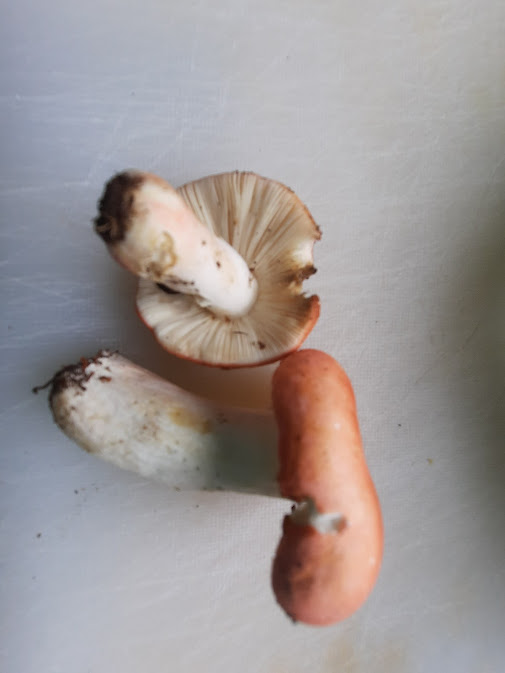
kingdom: Fungi
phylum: Basidiomycota
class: Agaricomycetes
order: Russulales
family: Russulaceae
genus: Russula
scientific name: Russula rosea
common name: fastkødet skørhat
